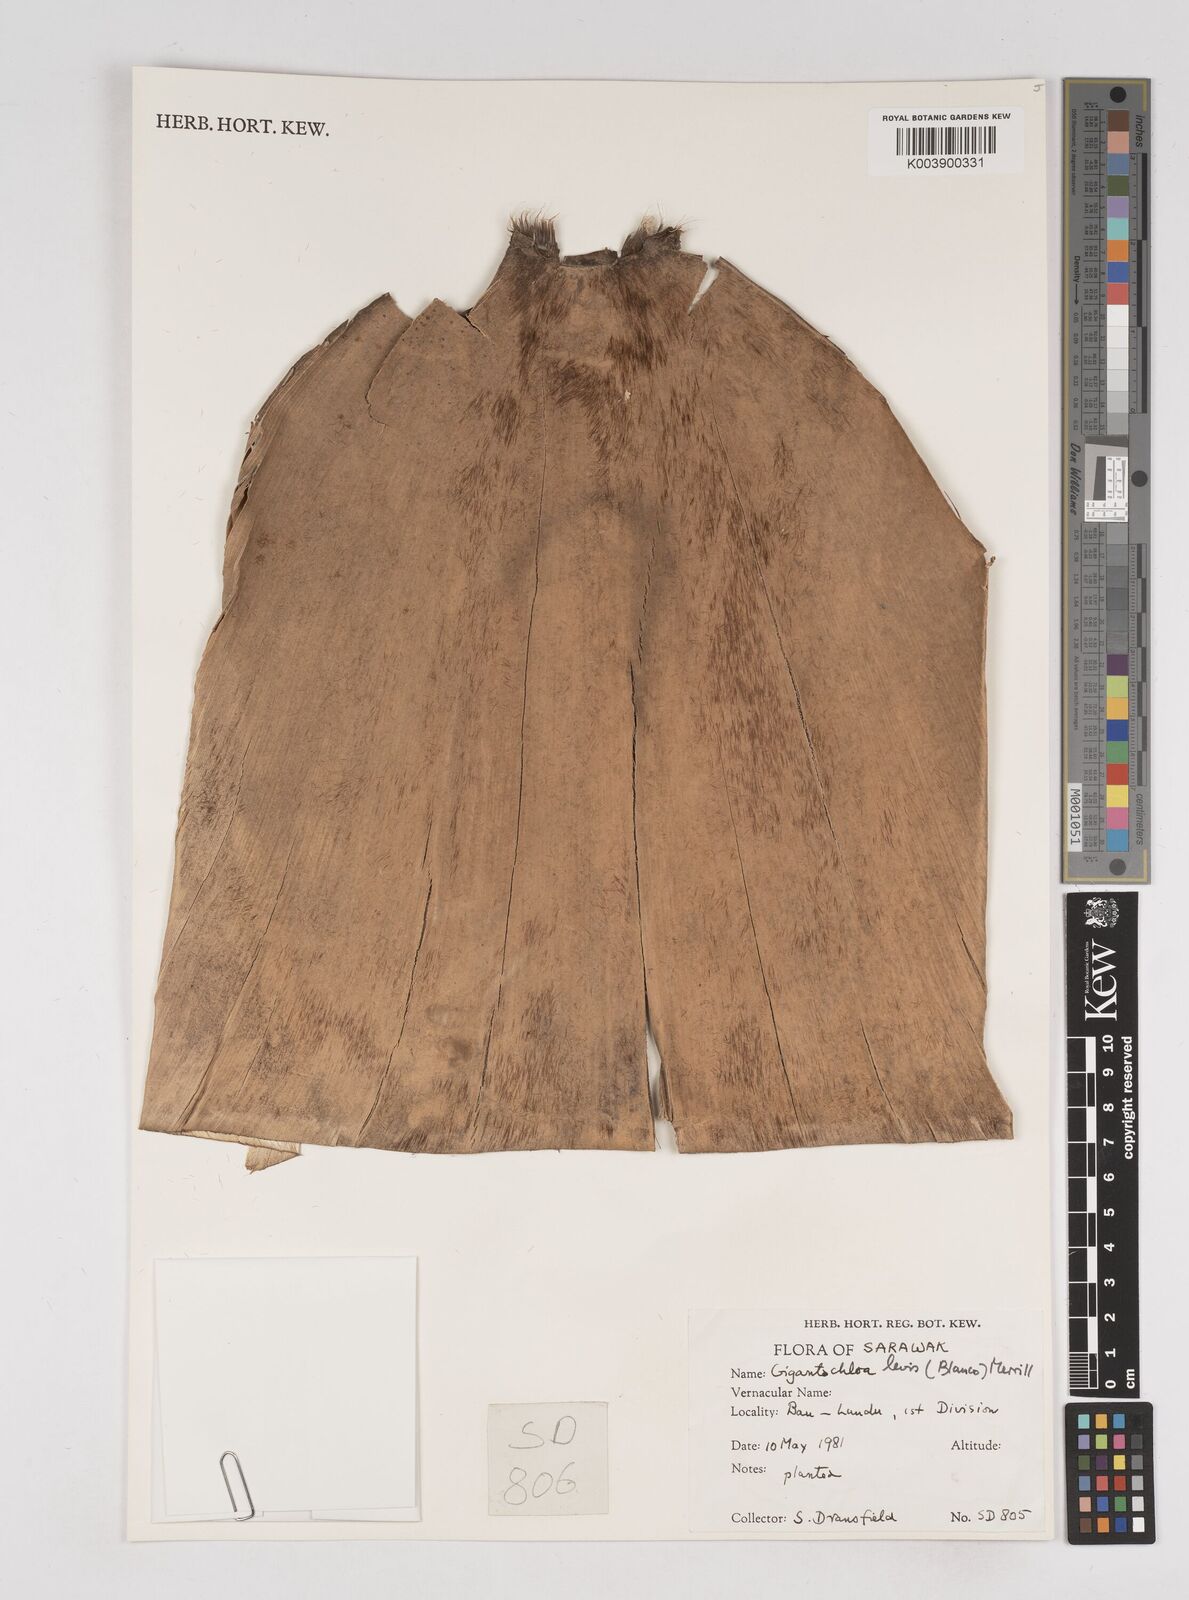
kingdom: Plantae
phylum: Tracheophyta
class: Liliopsida
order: Poales
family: Poaceae
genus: Gigantochloa
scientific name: Gigantochloa levis
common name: Smooth-shoot gigantochloa
